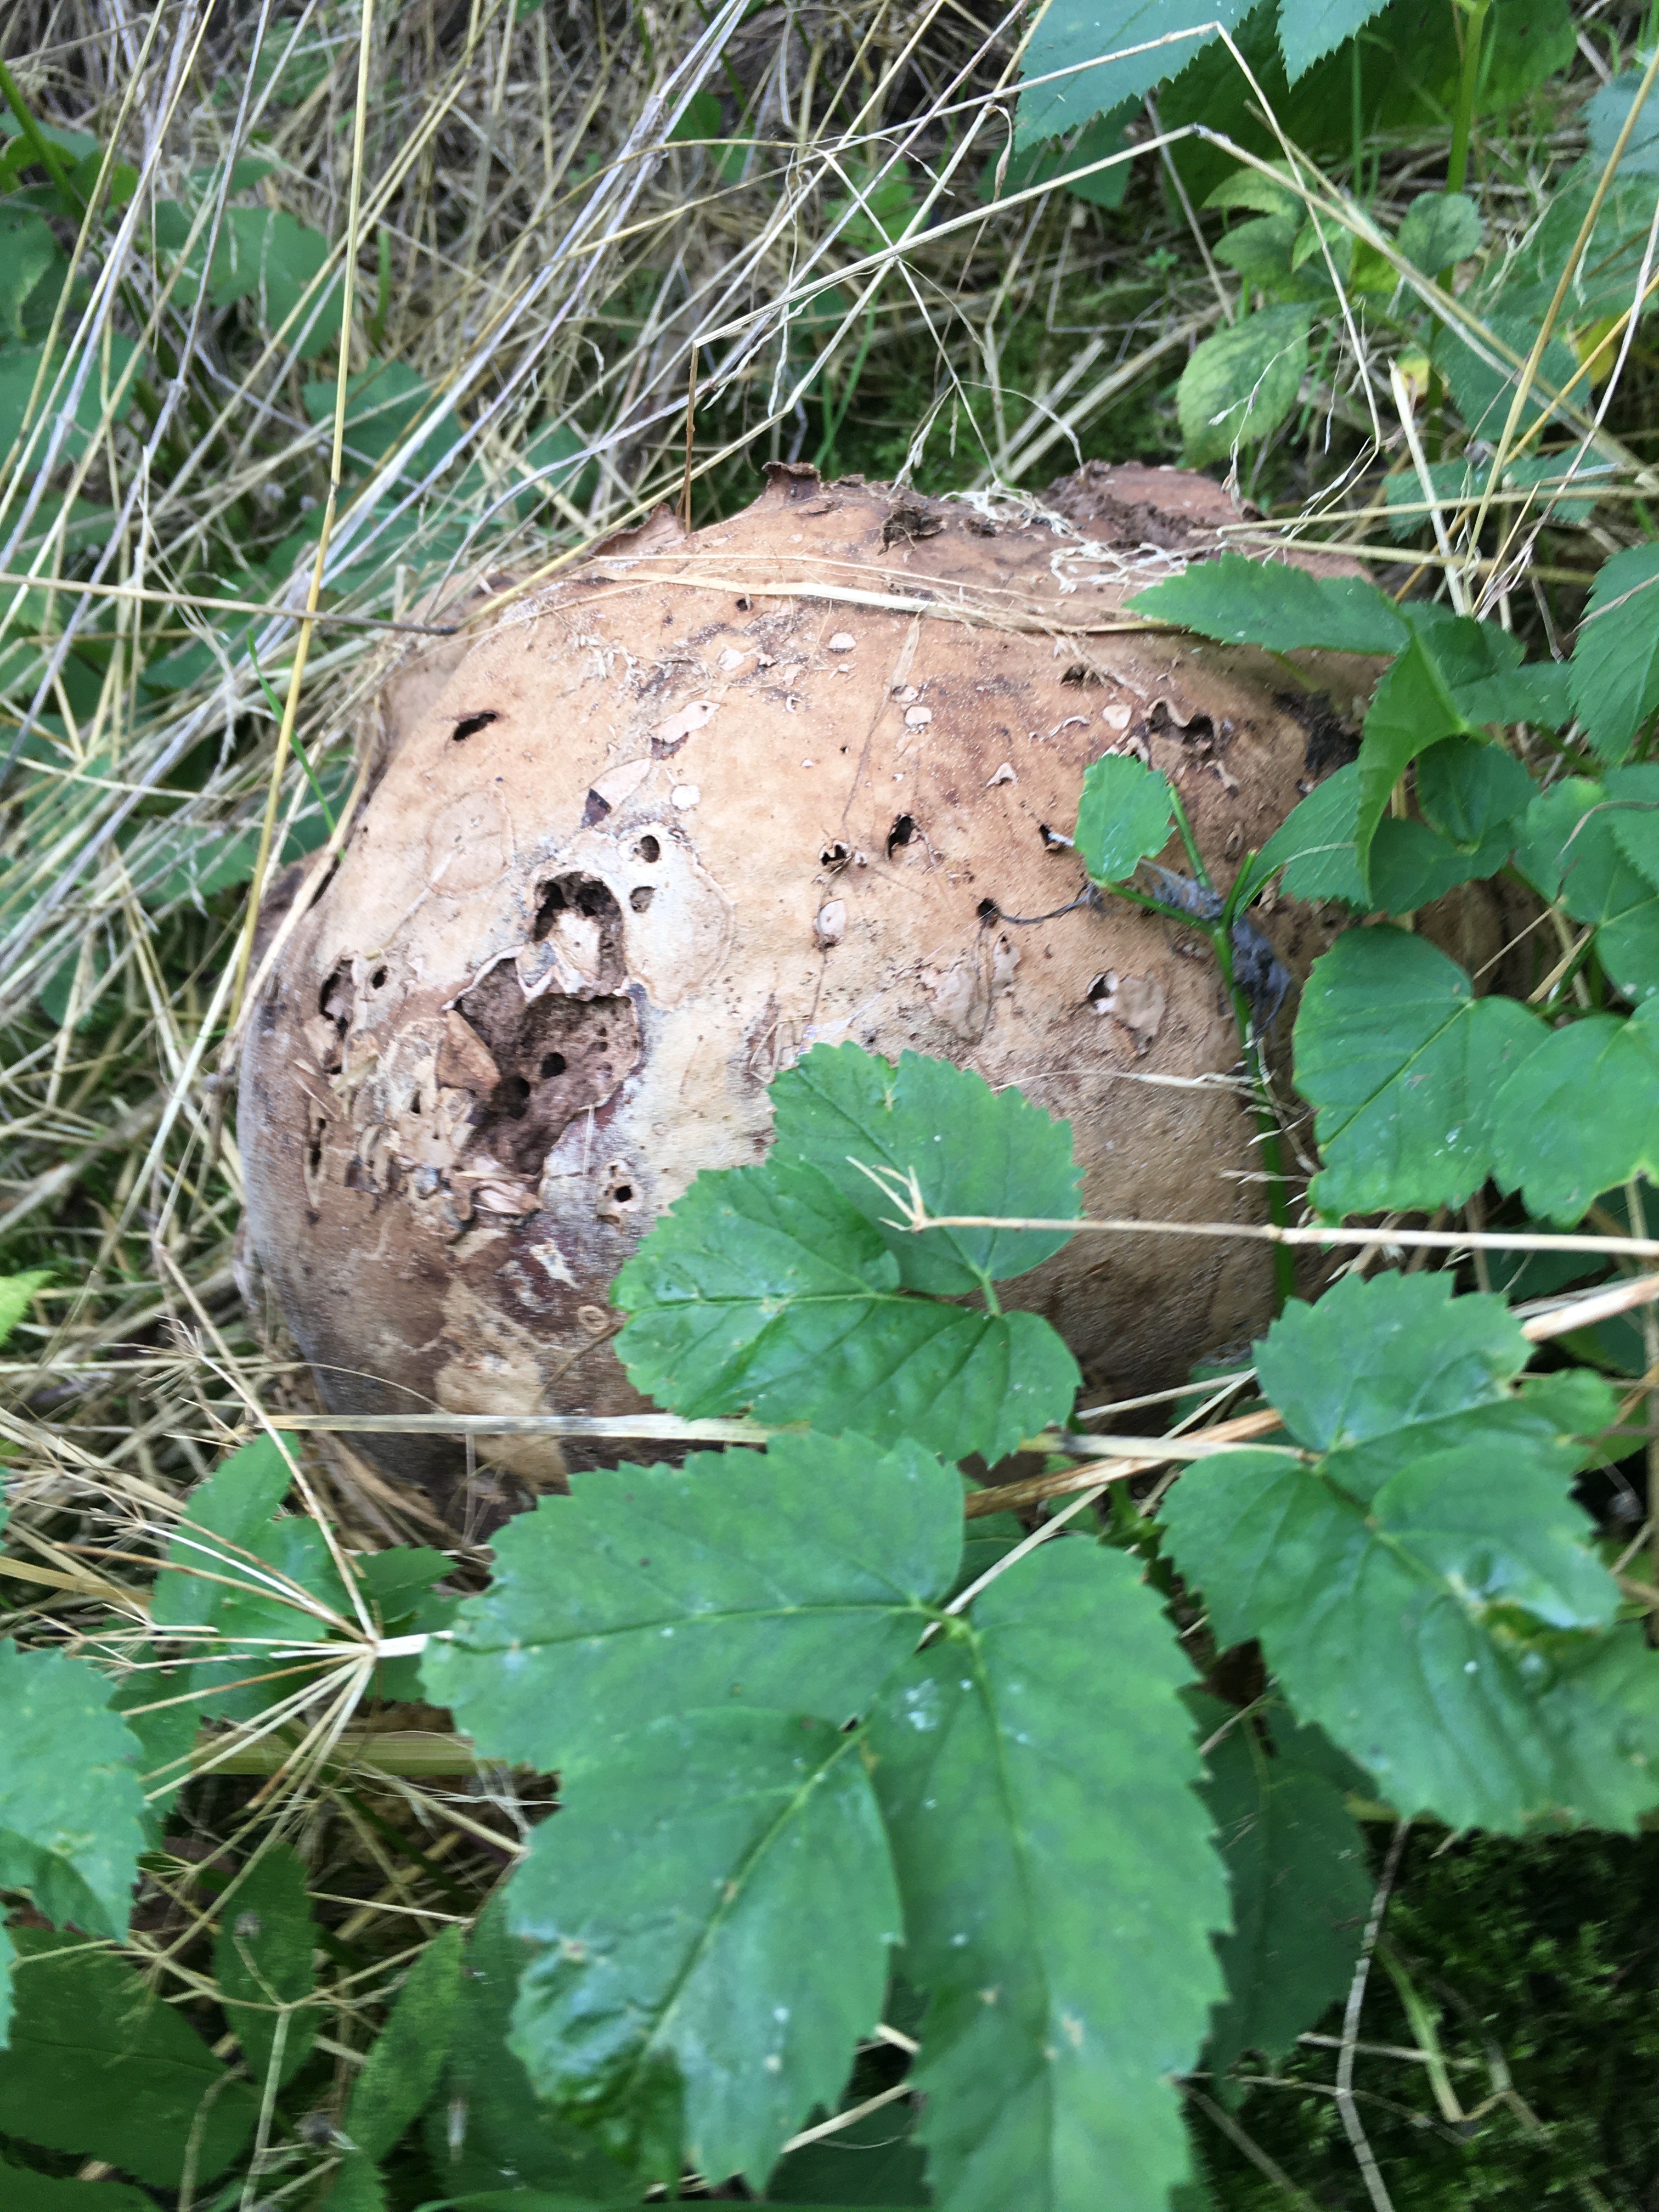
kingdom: Fungi
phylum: Basidiomycota
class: Agaricomycetes
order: Agaricales
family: Lycoperdaceae
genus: Calvatia
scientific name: Calvatia gigantea
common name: kæmpestøvbold
